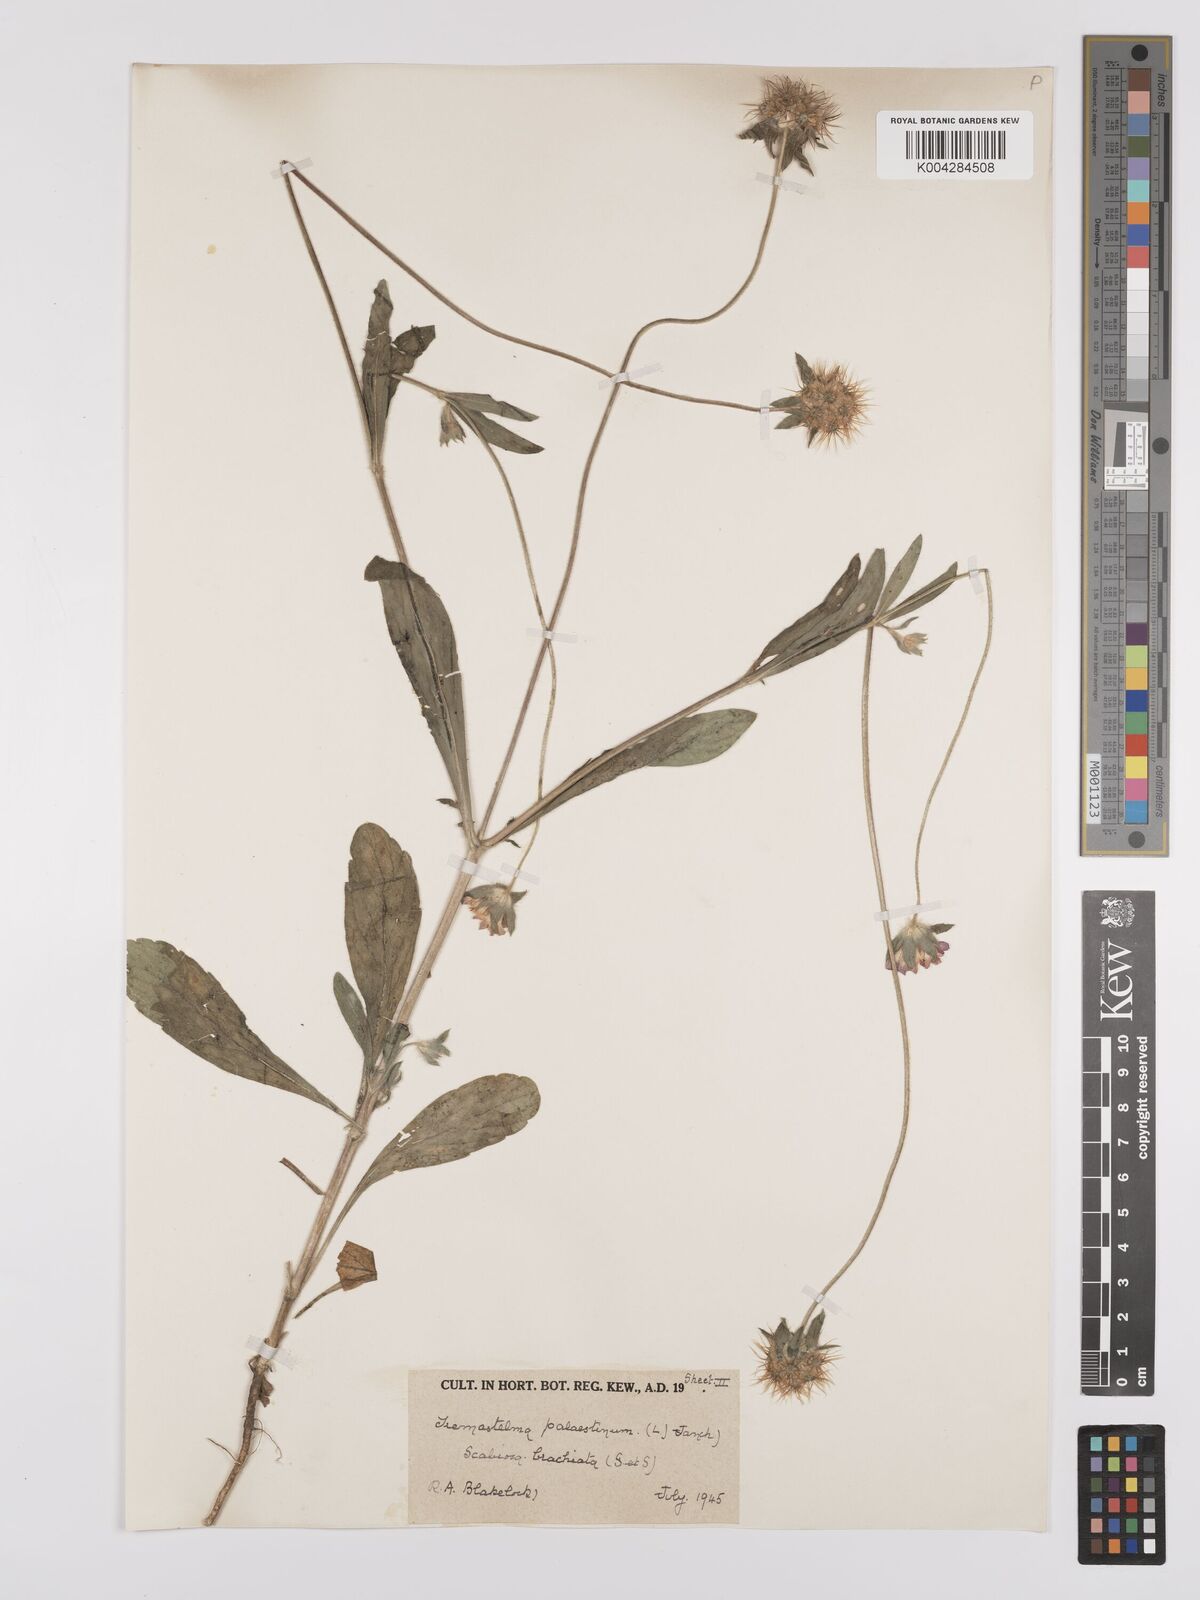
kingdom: Plantae
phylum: Tracheophyta
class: Magnoliopsida
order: Dipsacales
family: Caprifoliaceae
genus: Lomelosia
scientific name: Lomelosia brachiata
